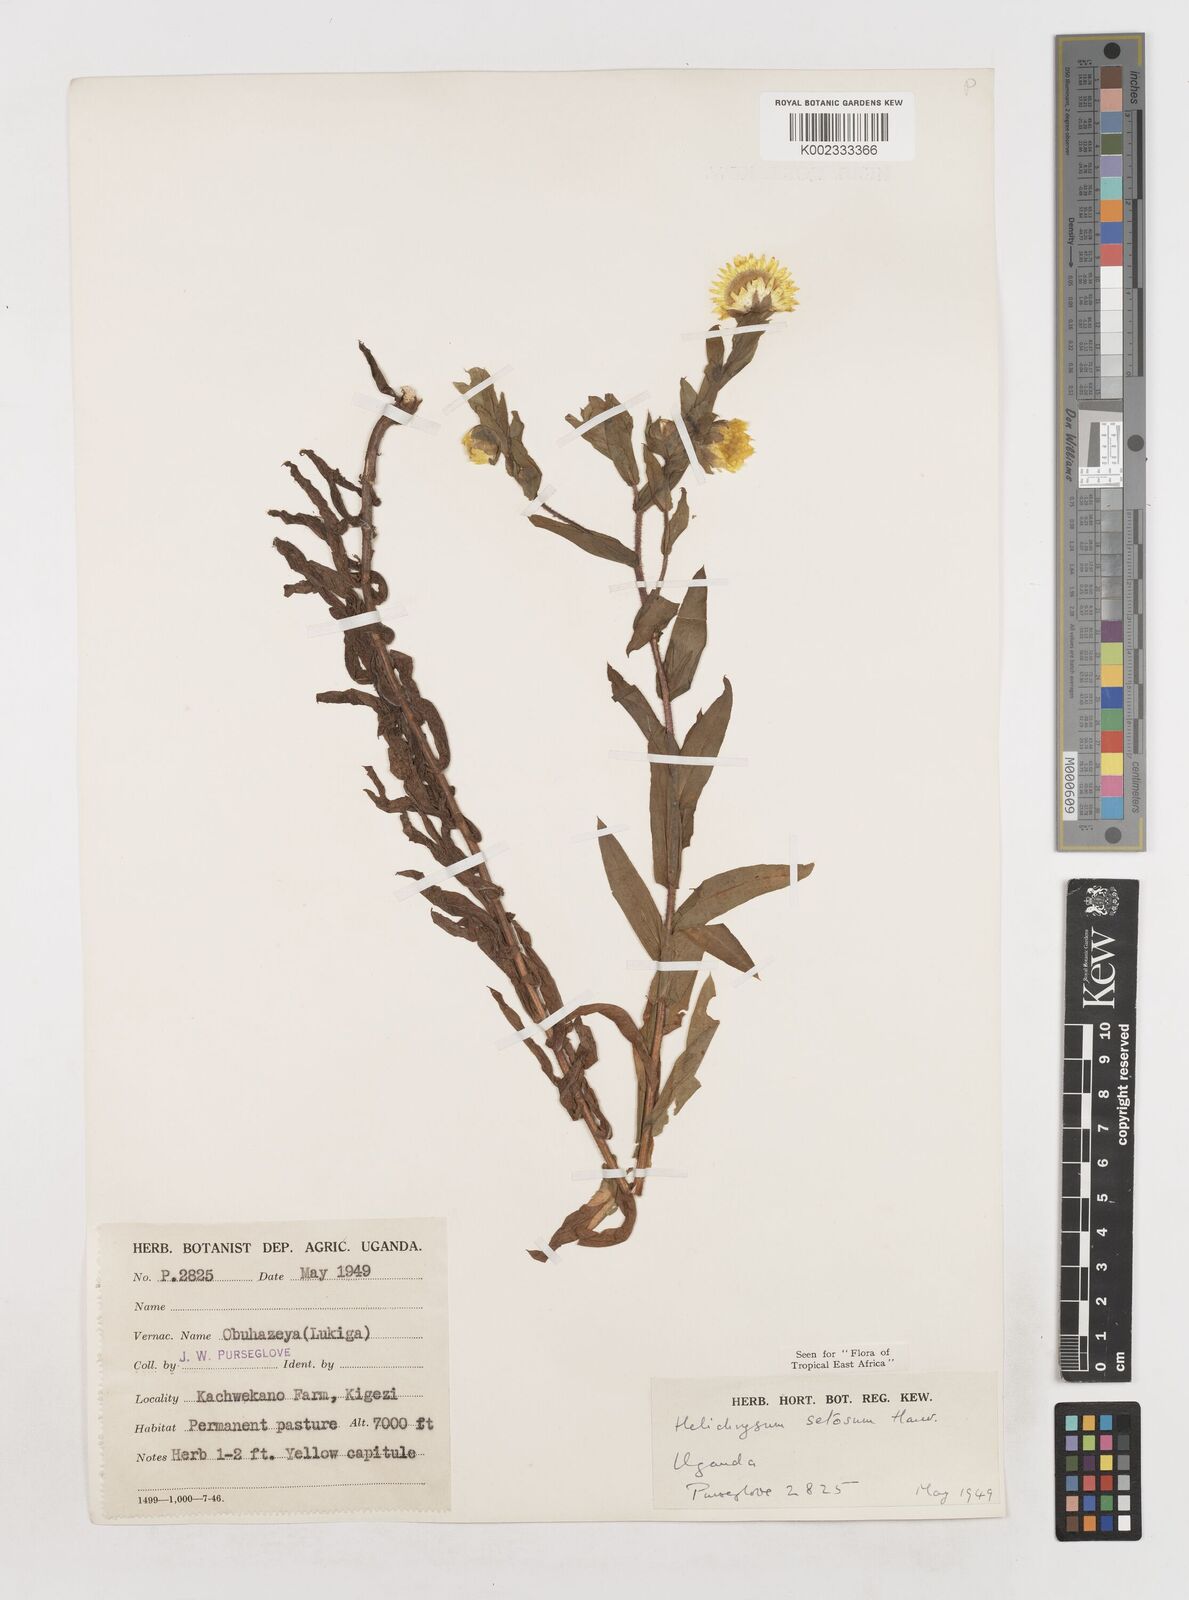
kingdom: Plantae
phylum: Tracheophyta
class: Magnoliopsida
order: Asterales
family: Asteraceae
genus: Helichrysum
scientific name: Helichrysum setosum
